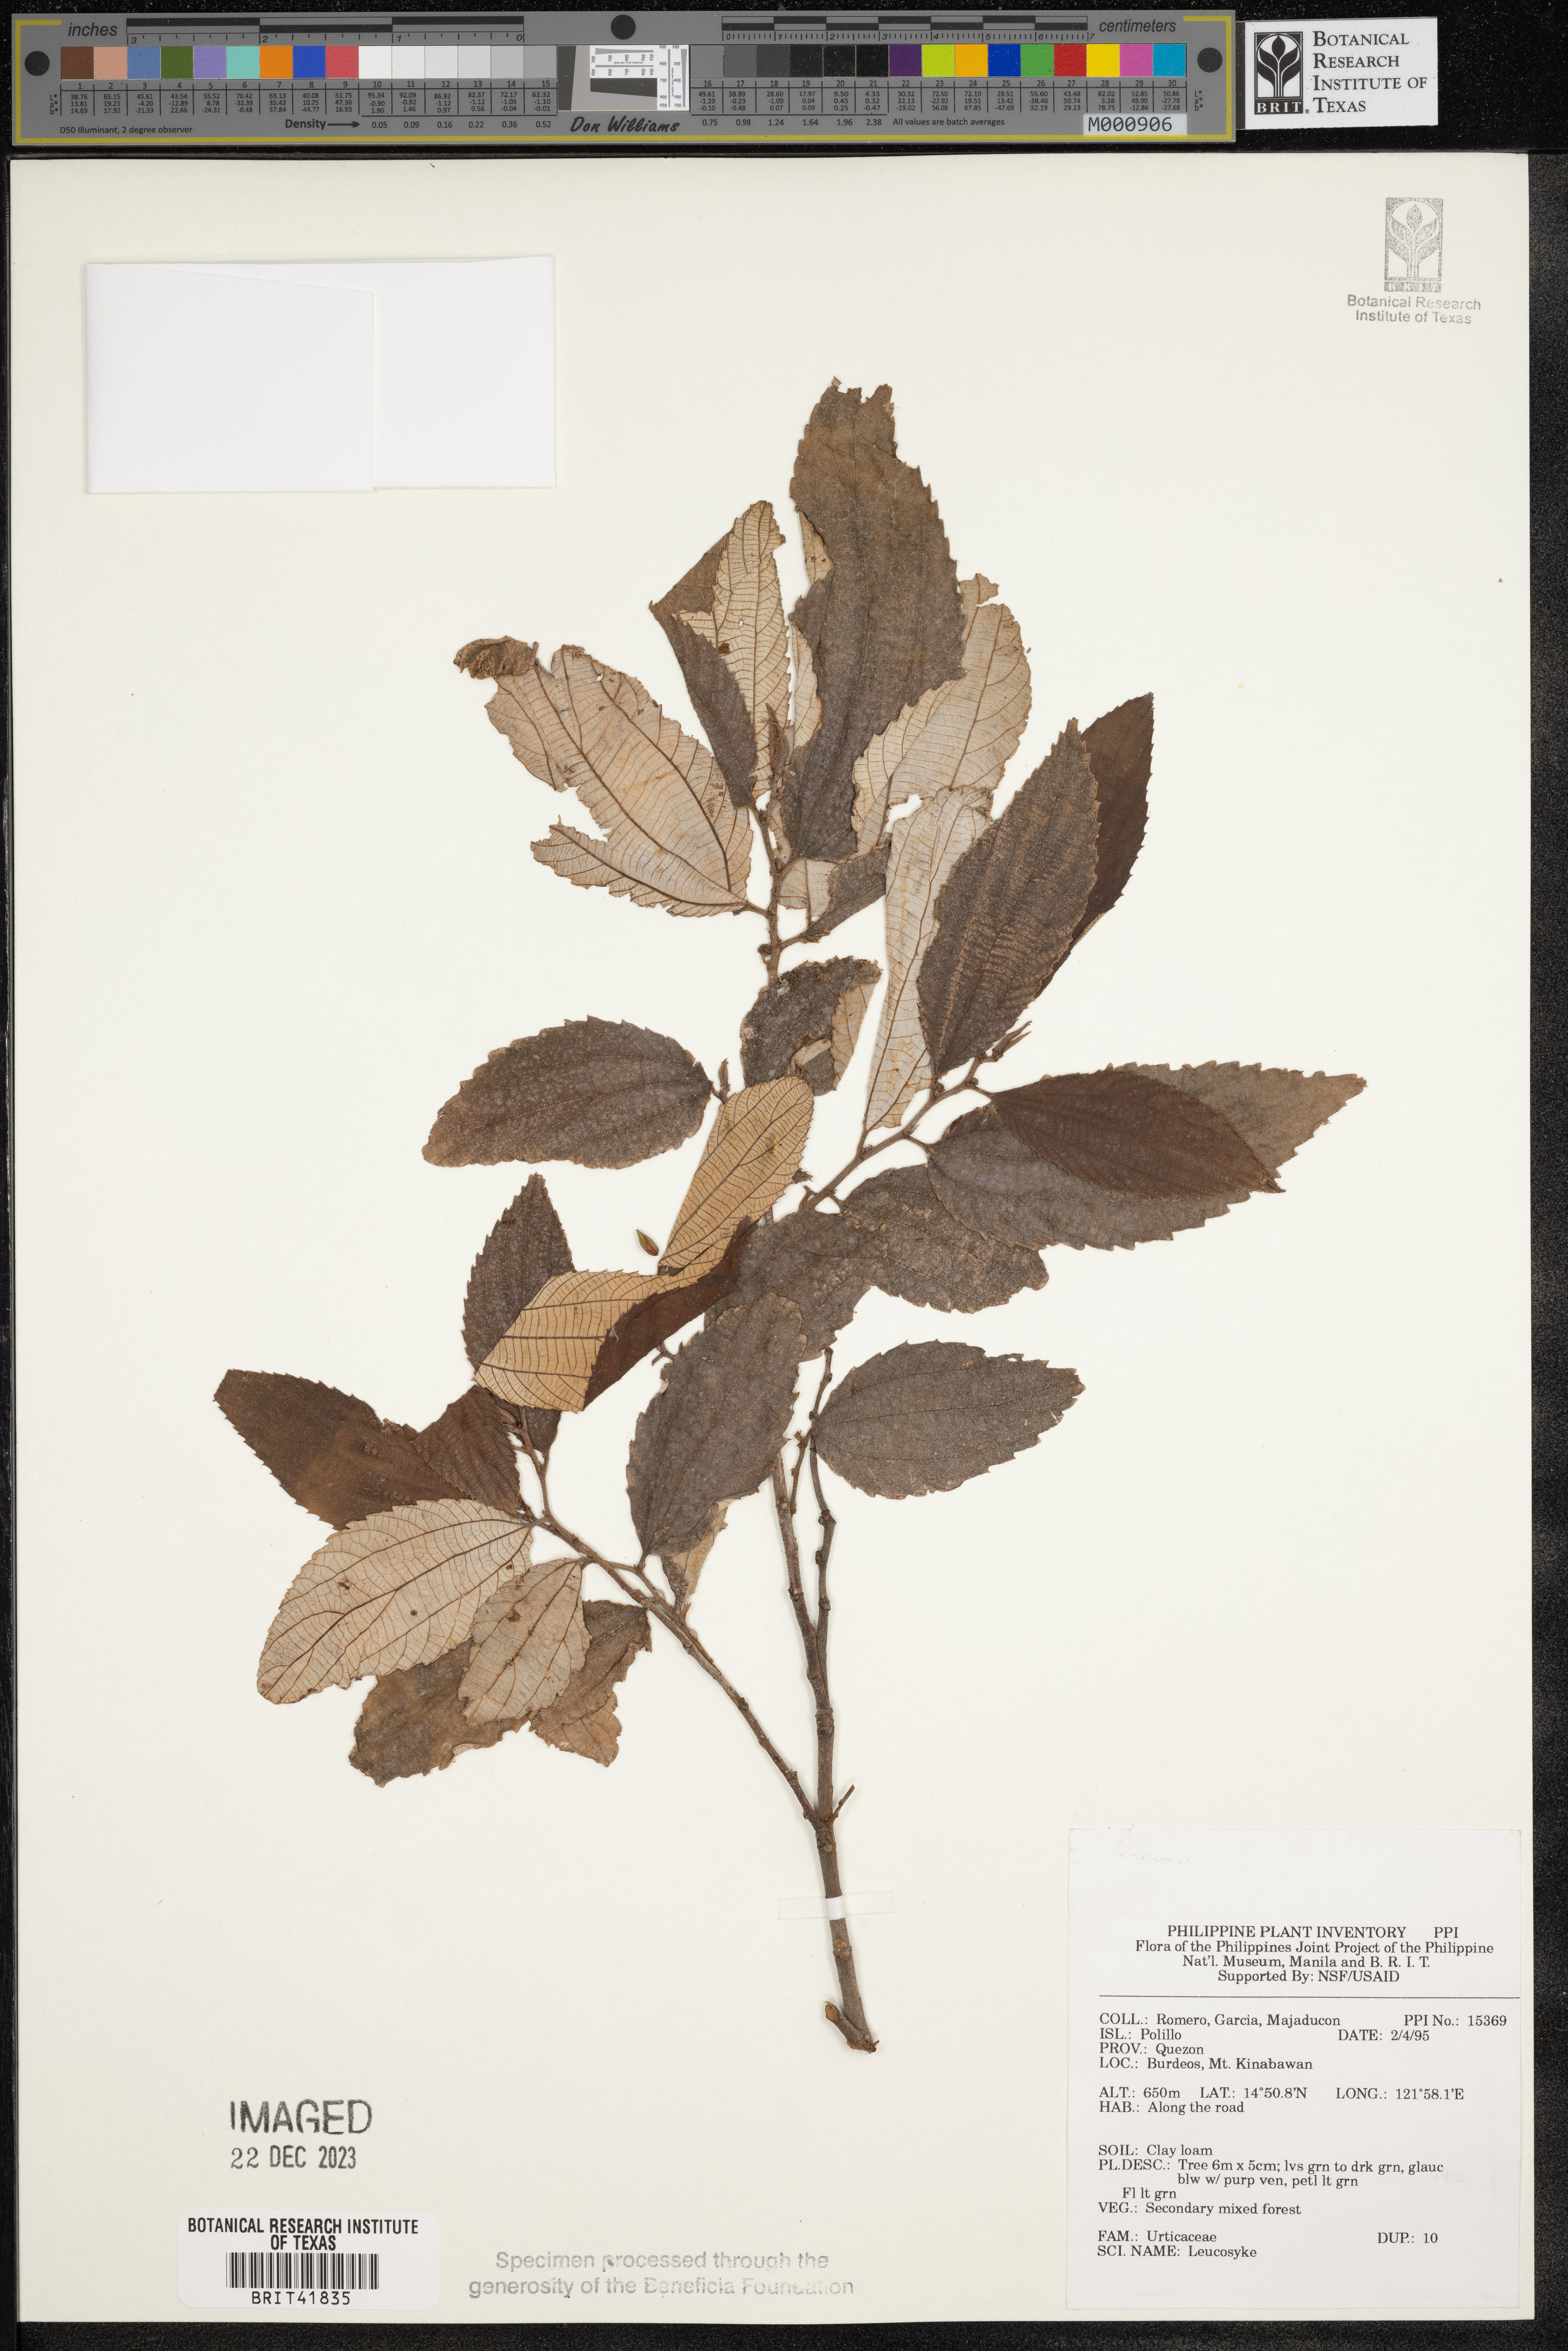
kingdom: Plantae
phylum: Tracheophyta
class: Magnoliopsida
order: Rosales
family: Urticaceae
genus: Leucosyke
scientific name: Leucosyke
